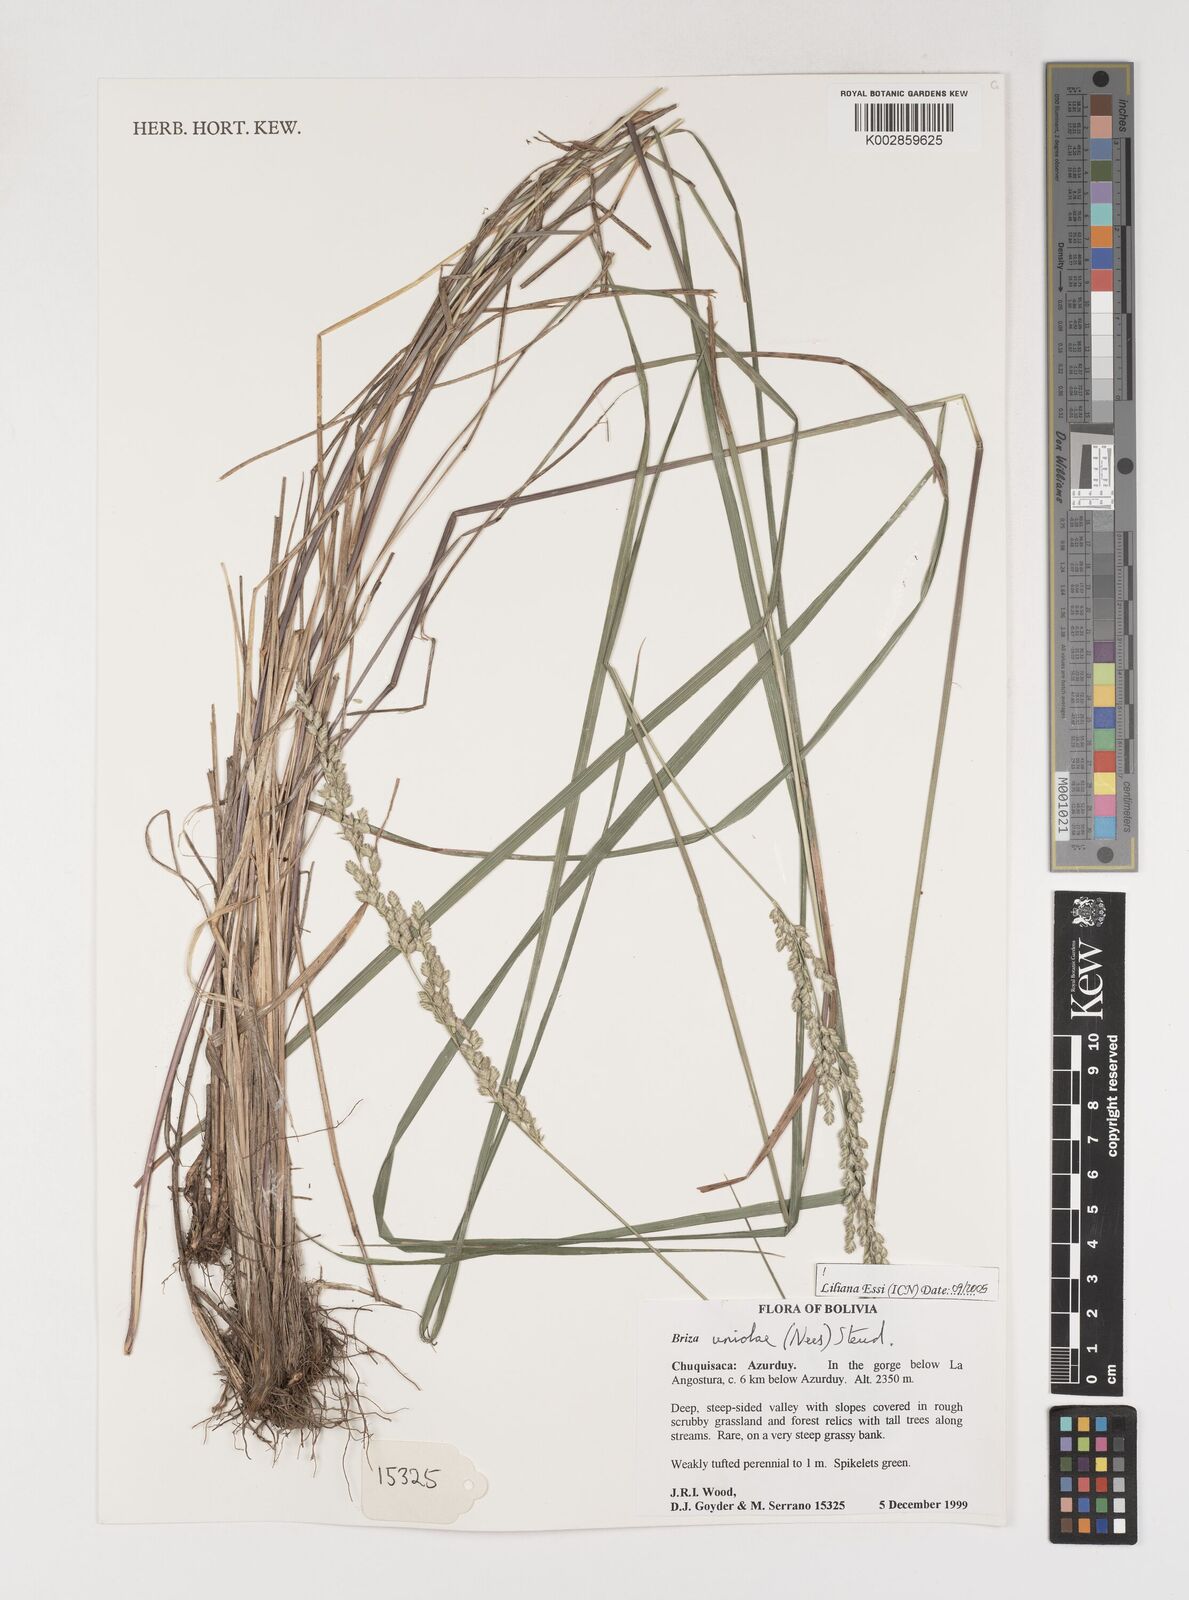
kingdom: Plantae
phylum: Tracheophyta
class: Liliopsida
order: Poales
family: Poaceae
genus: Poidium
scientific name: Poidium uniolae
